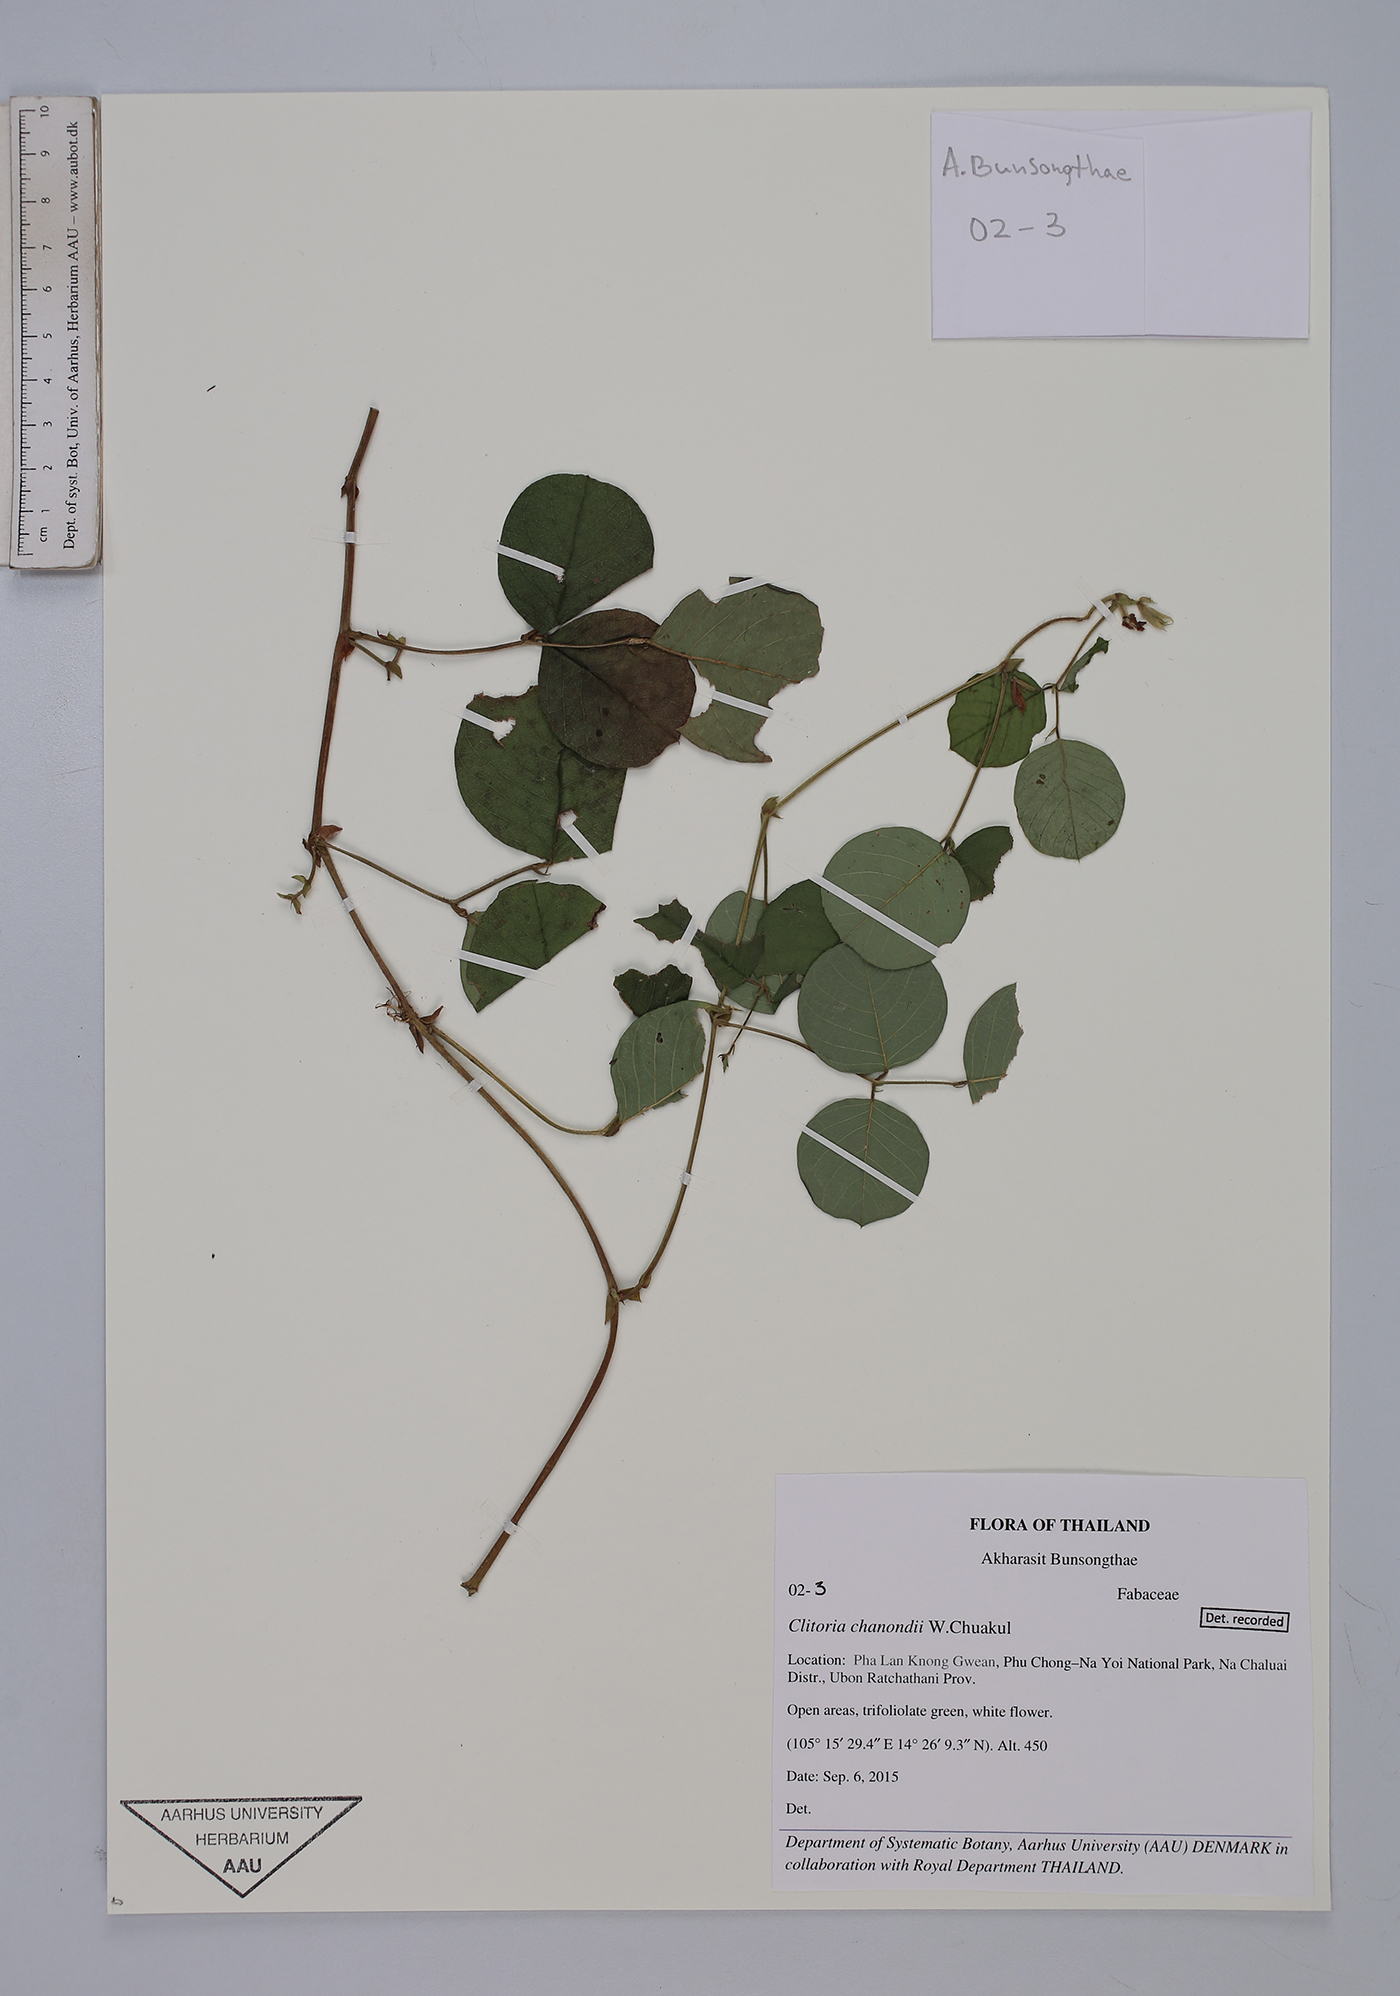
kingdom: Plantae
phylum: Tracheophyta
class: Magnoliopsida
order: Fabales
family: Fabaceae
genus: Clitoria
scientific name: Clitoria chanondii
